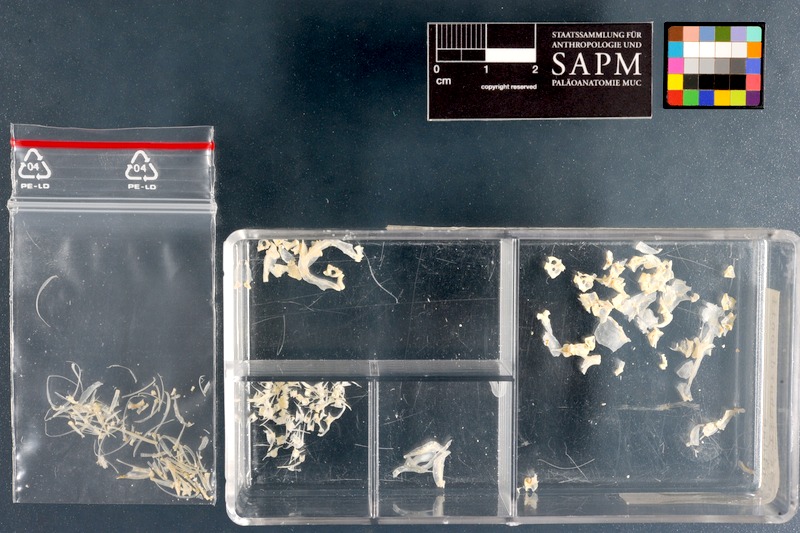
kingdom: Animalia
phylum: Chordata
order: Cypriniformes
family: Cyprinidae
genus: Schizothorax
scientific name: Schizothorax richardsonii
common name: Alawan snowtrout
